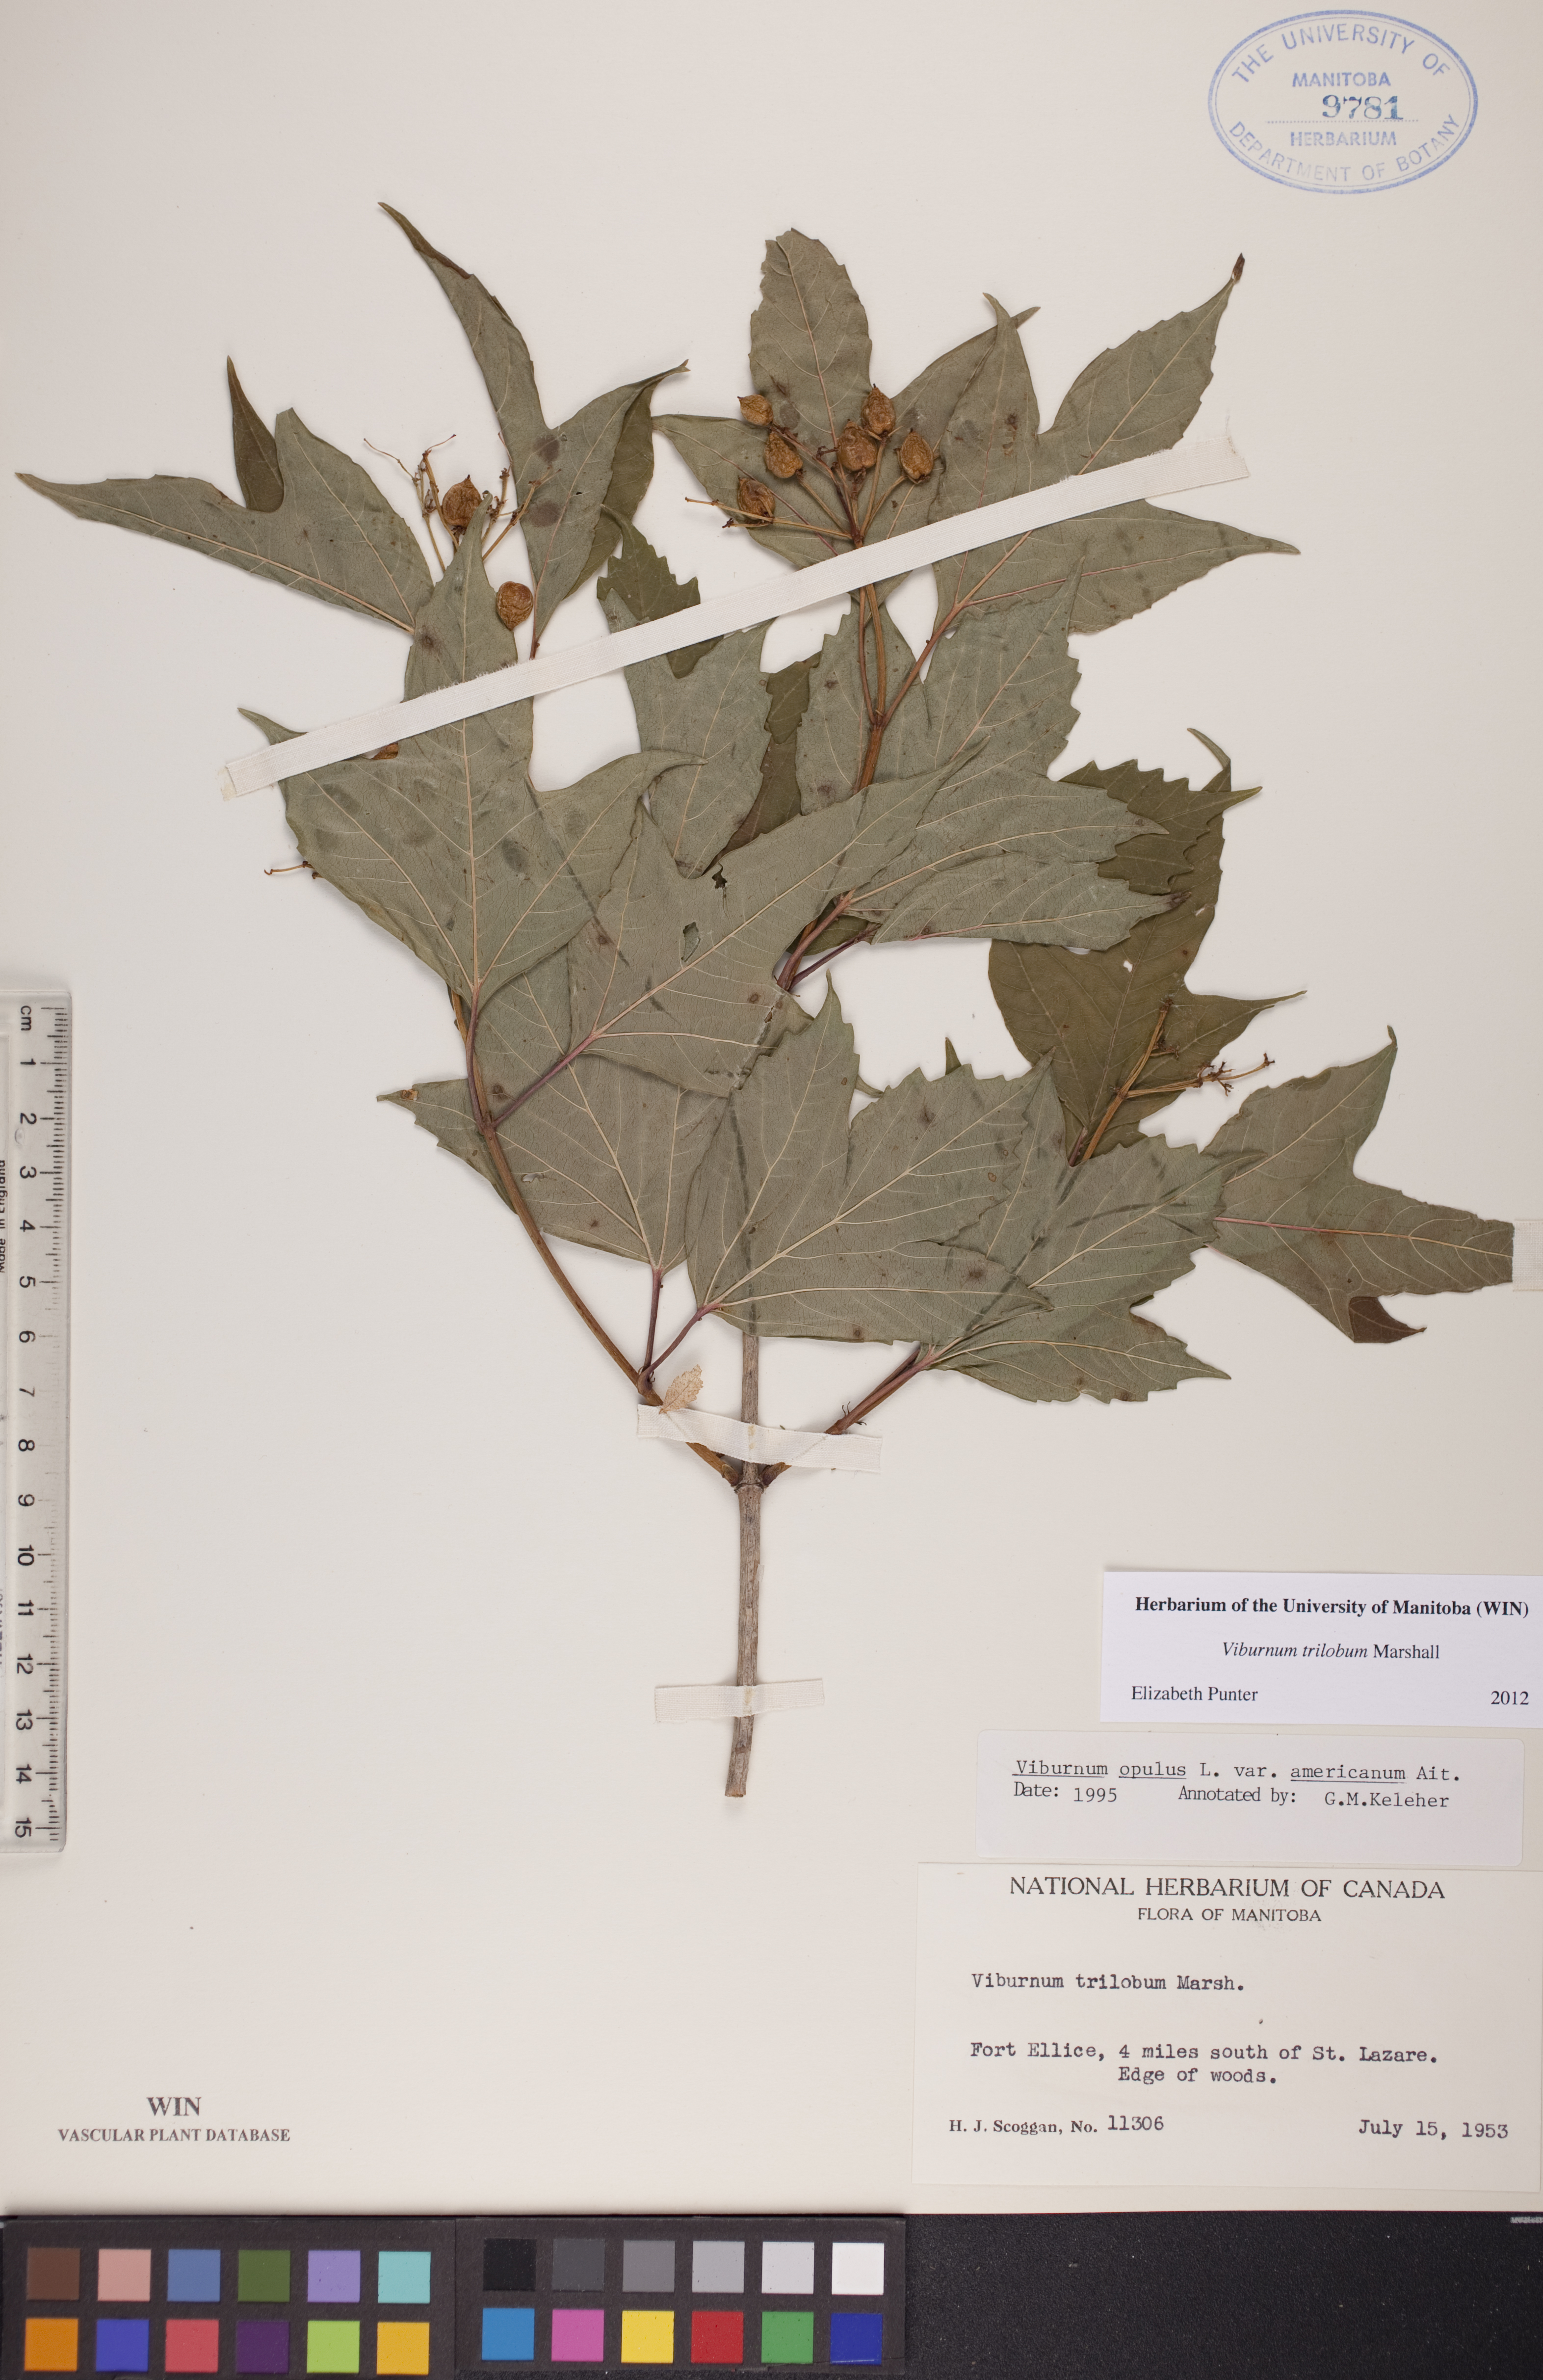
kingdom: Plantae
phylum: Tracheophyta
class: Magnoliopsida
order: Dipsacales
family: Viburnaceae
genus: Viburnum
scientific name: Viburnum trilobum
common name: American cranberrybush
